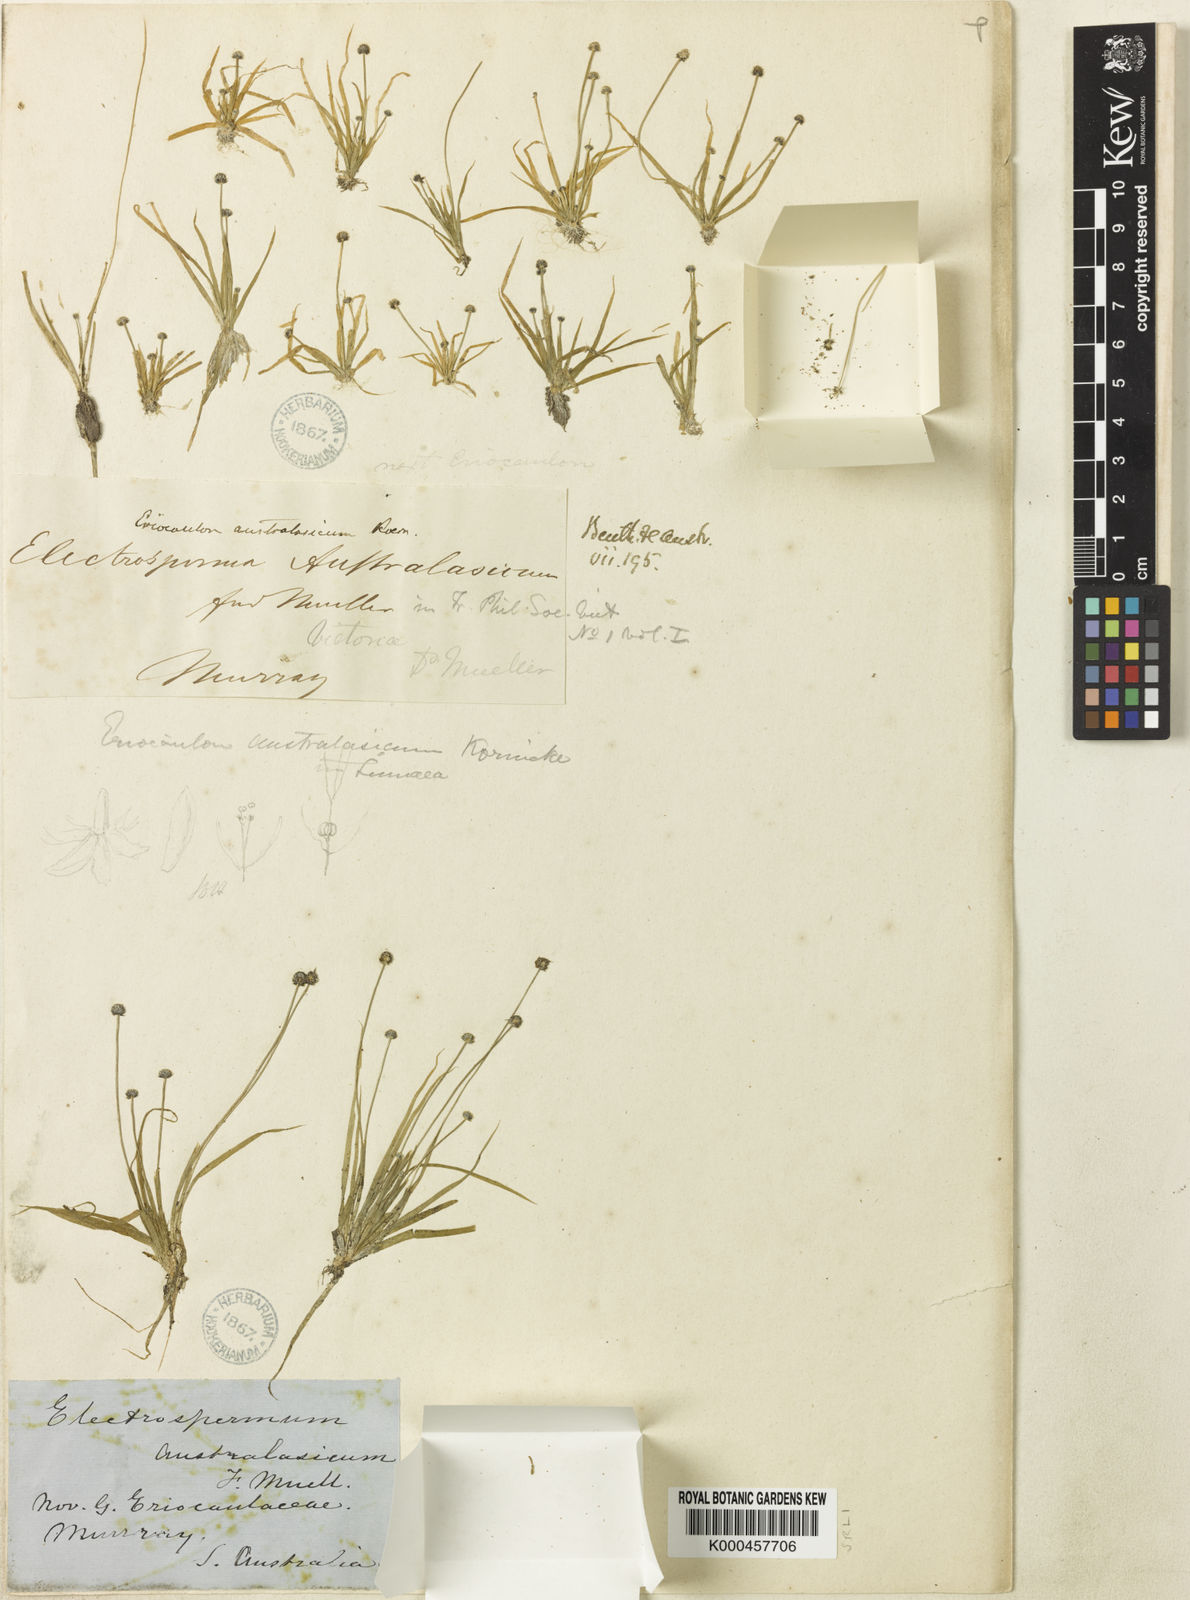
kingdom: Plantae
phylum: Tracheophyta
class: Liliopsida
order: Poales
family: Eriocaulaceae
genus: Eriocaulon
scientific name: Eriocaulon
